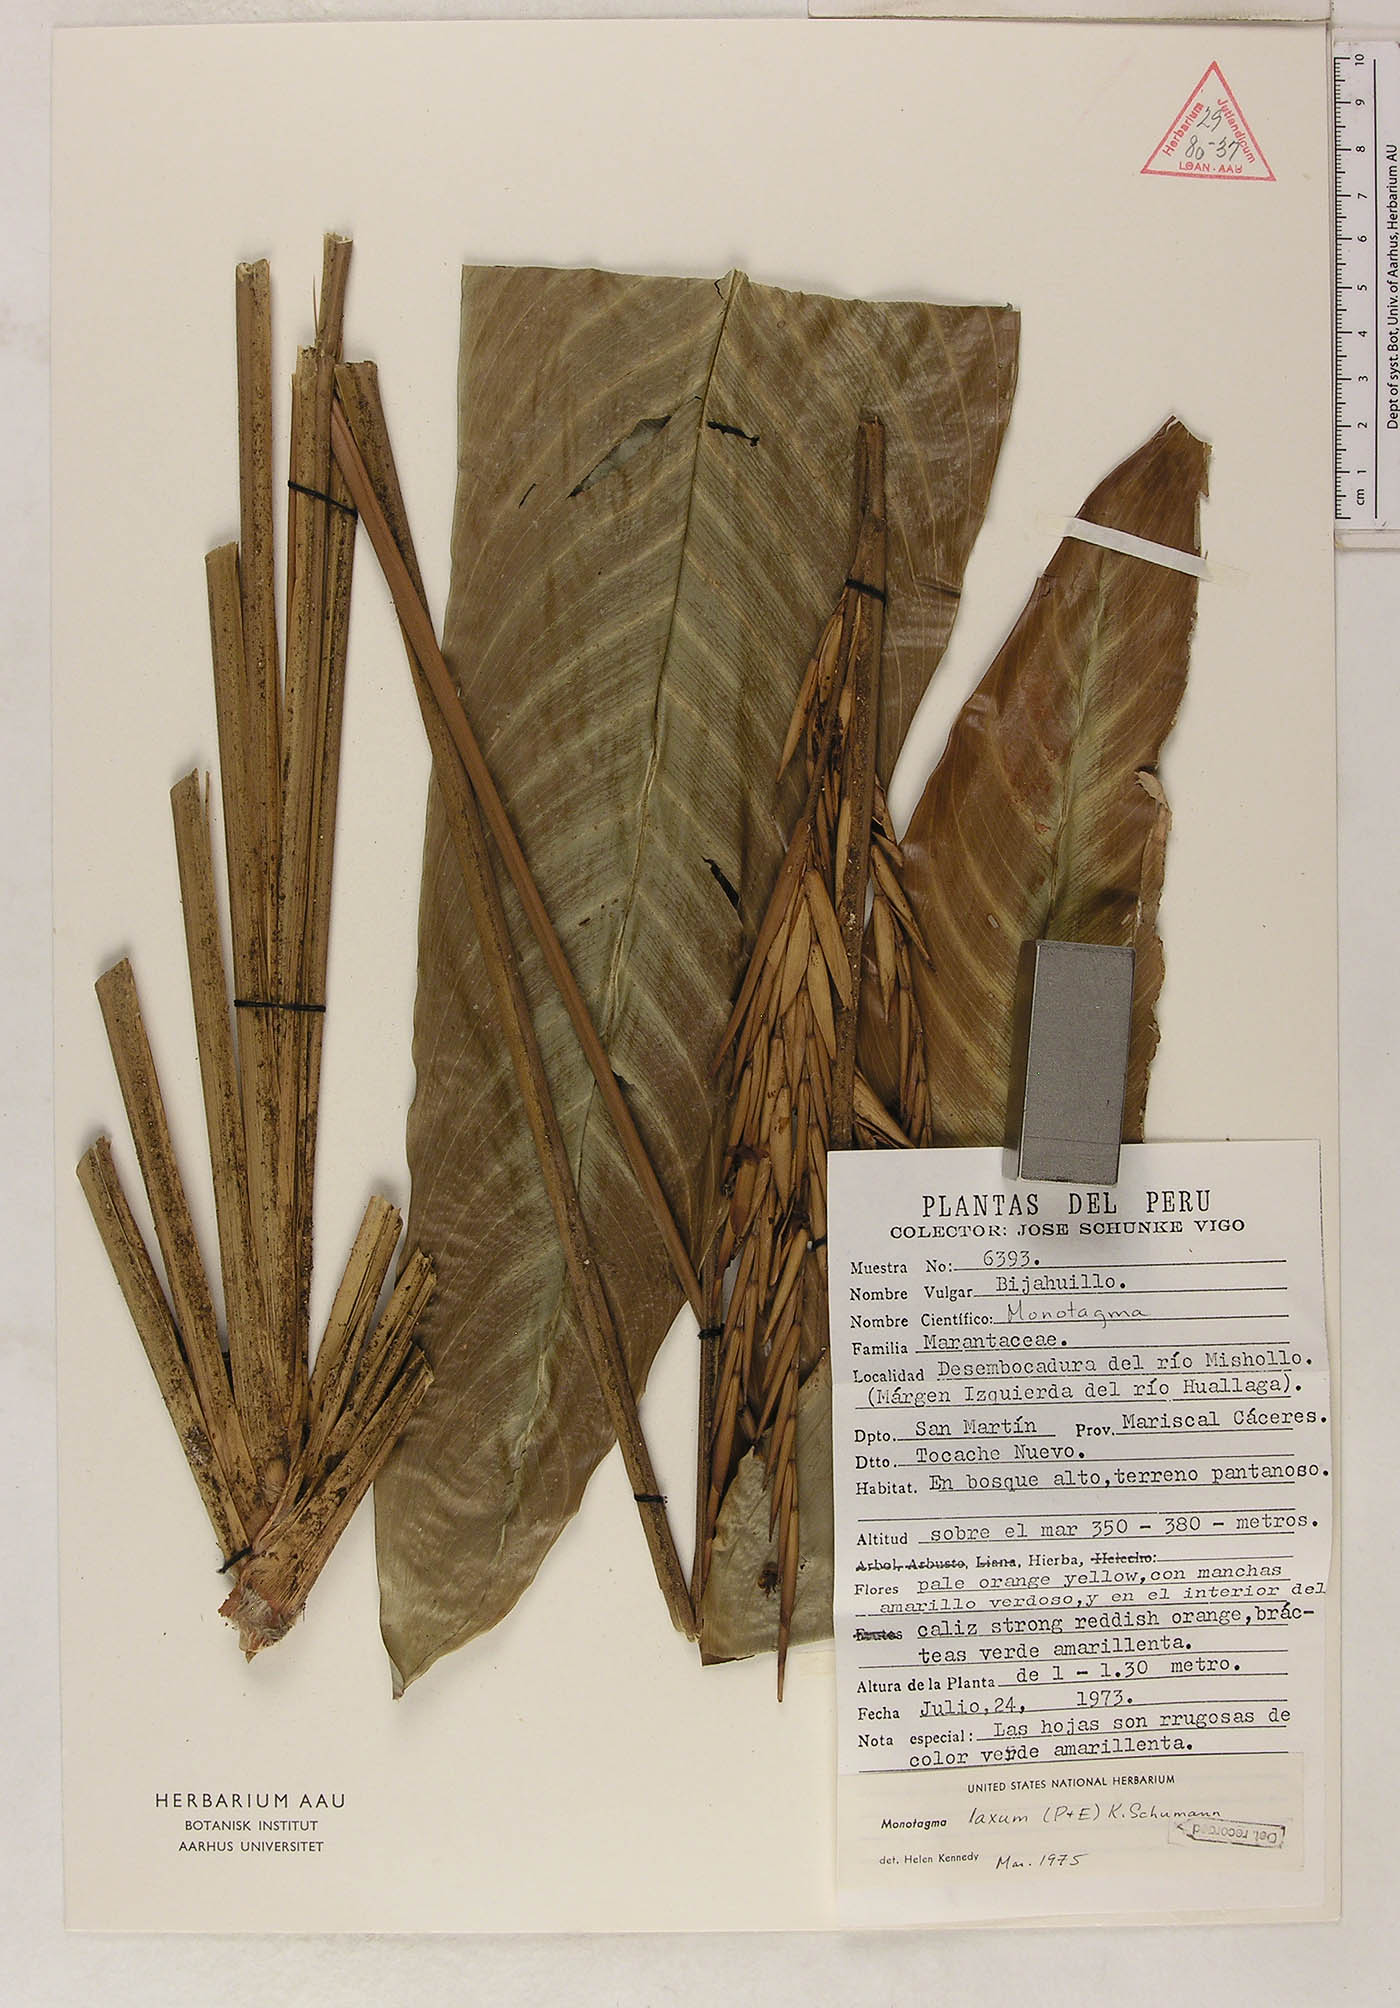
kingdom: Plantae
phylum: Tracheophyta
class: Liliopsida
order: Zingiberales
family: Marantaceae
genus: Monotagma
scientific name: Monotagma laxum
